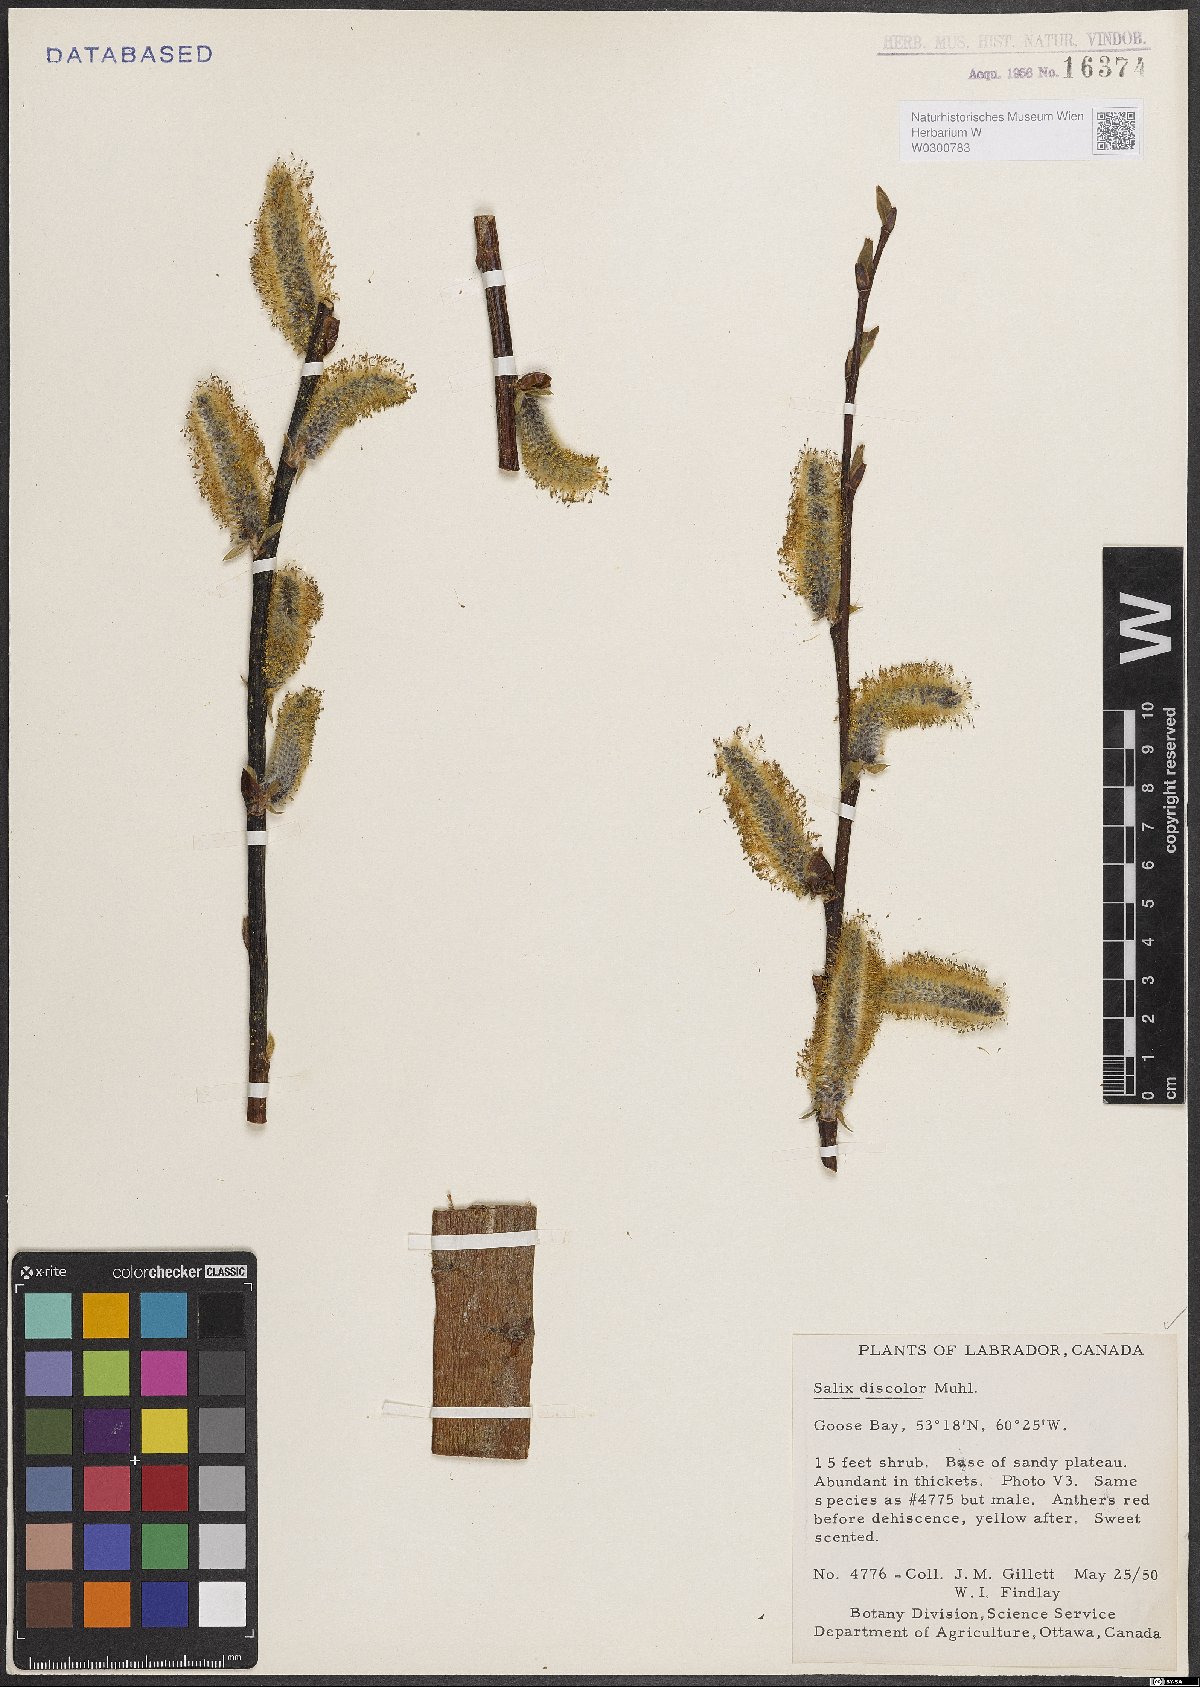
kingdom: Plantae
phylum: Tracheophyta
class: Magnoliopsida
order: Malpighiales
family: Salicaceae
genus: Salix
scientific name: Salix discolor
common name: Glaucous willow
